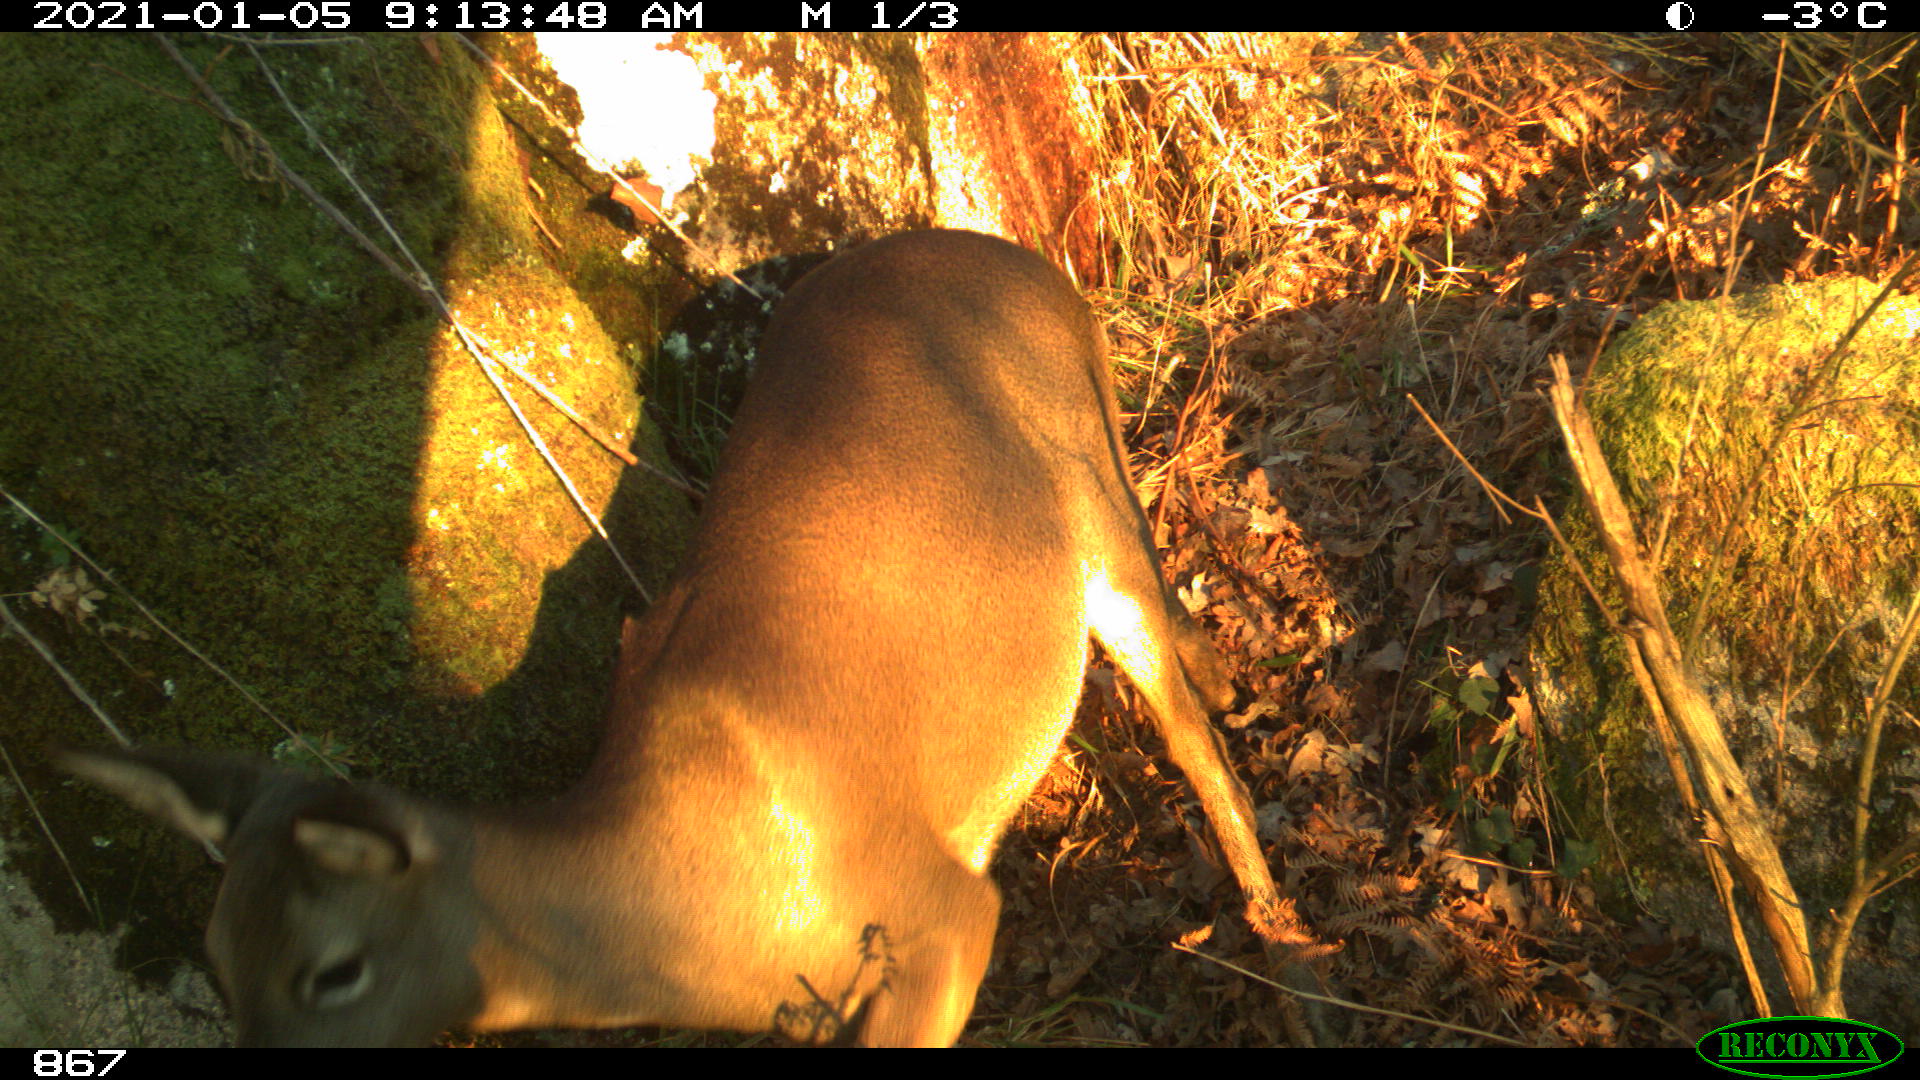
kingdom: Animalia
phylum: Chordata
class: Mammalia
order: Artiodactyla
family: Cervidae
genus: Capreolus
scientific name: Capreolus capreolus
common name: Western roe deer
